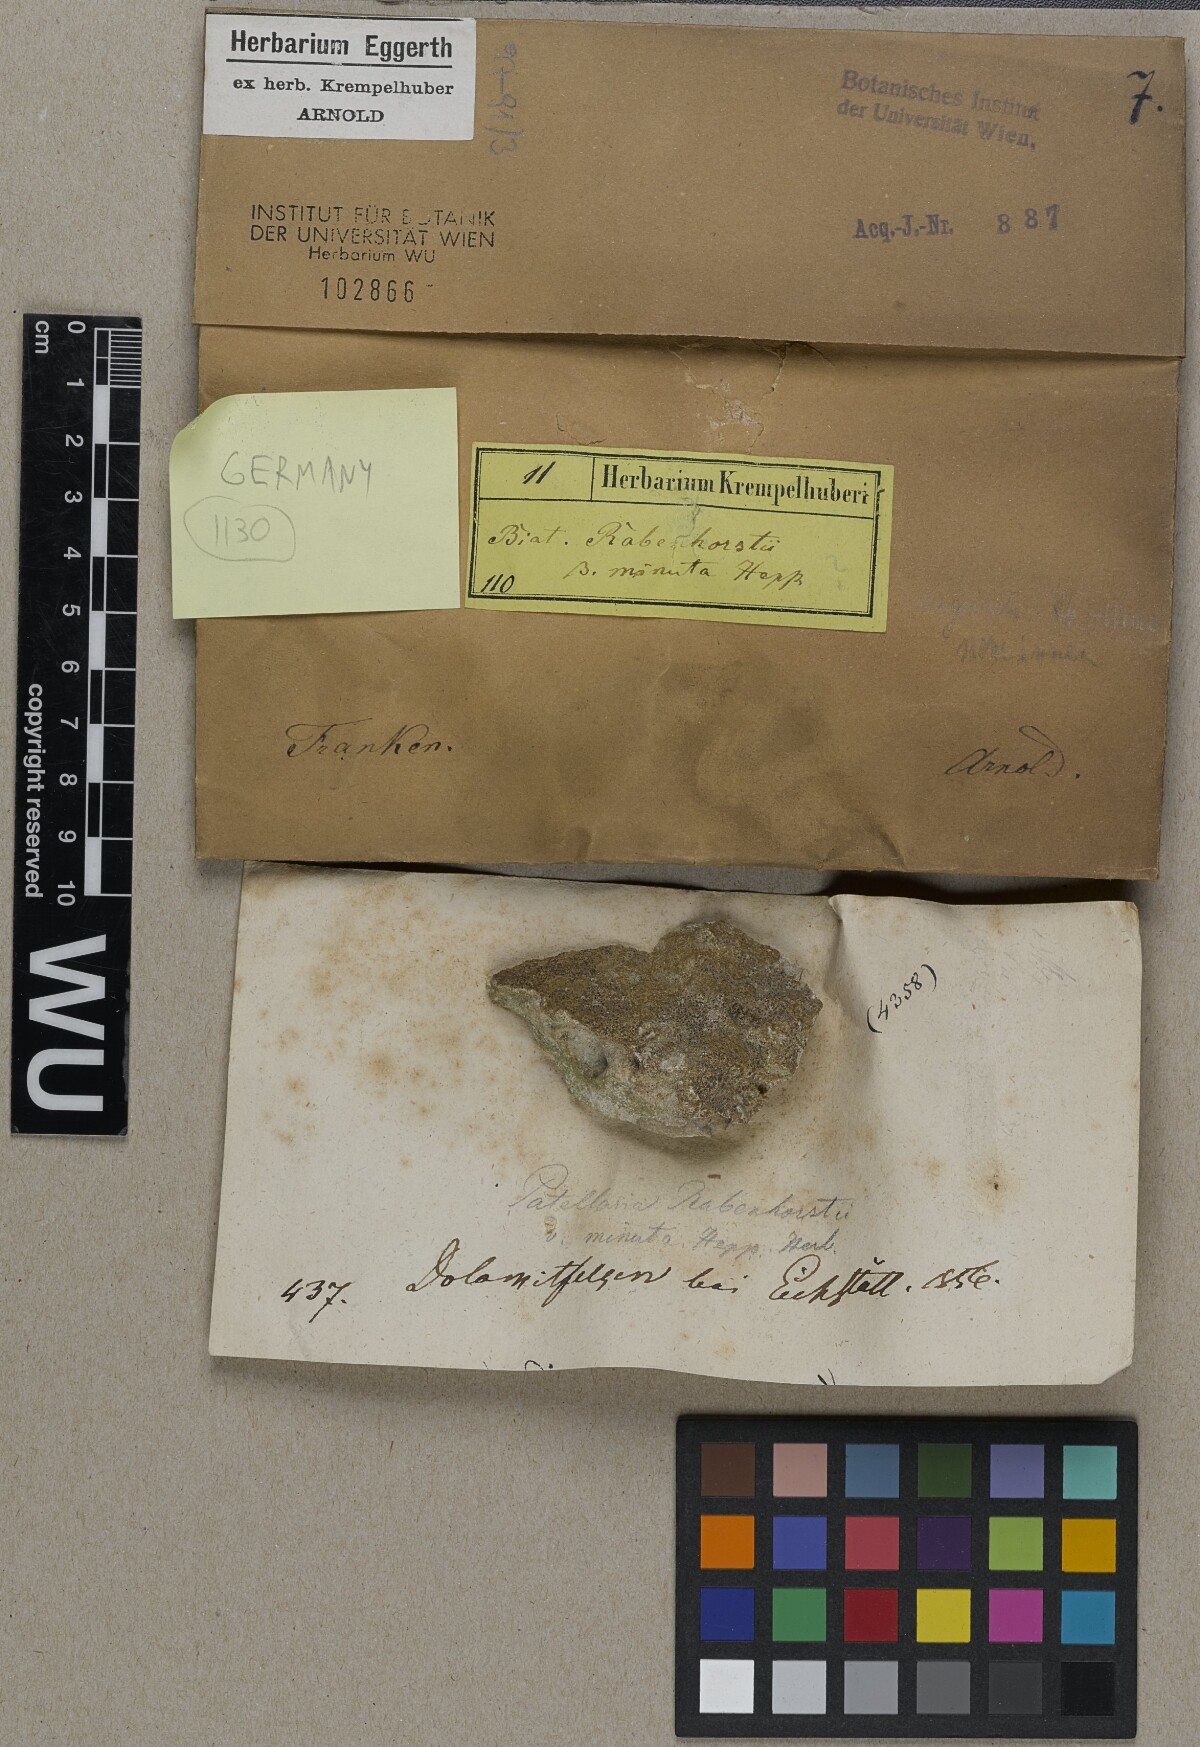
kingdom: Fungi
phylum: Ascomycota
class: Lecanoromycetes
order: Lecanorales
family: Ramalinaceae
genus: Lecania
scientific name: Lecania rabenhorstii
